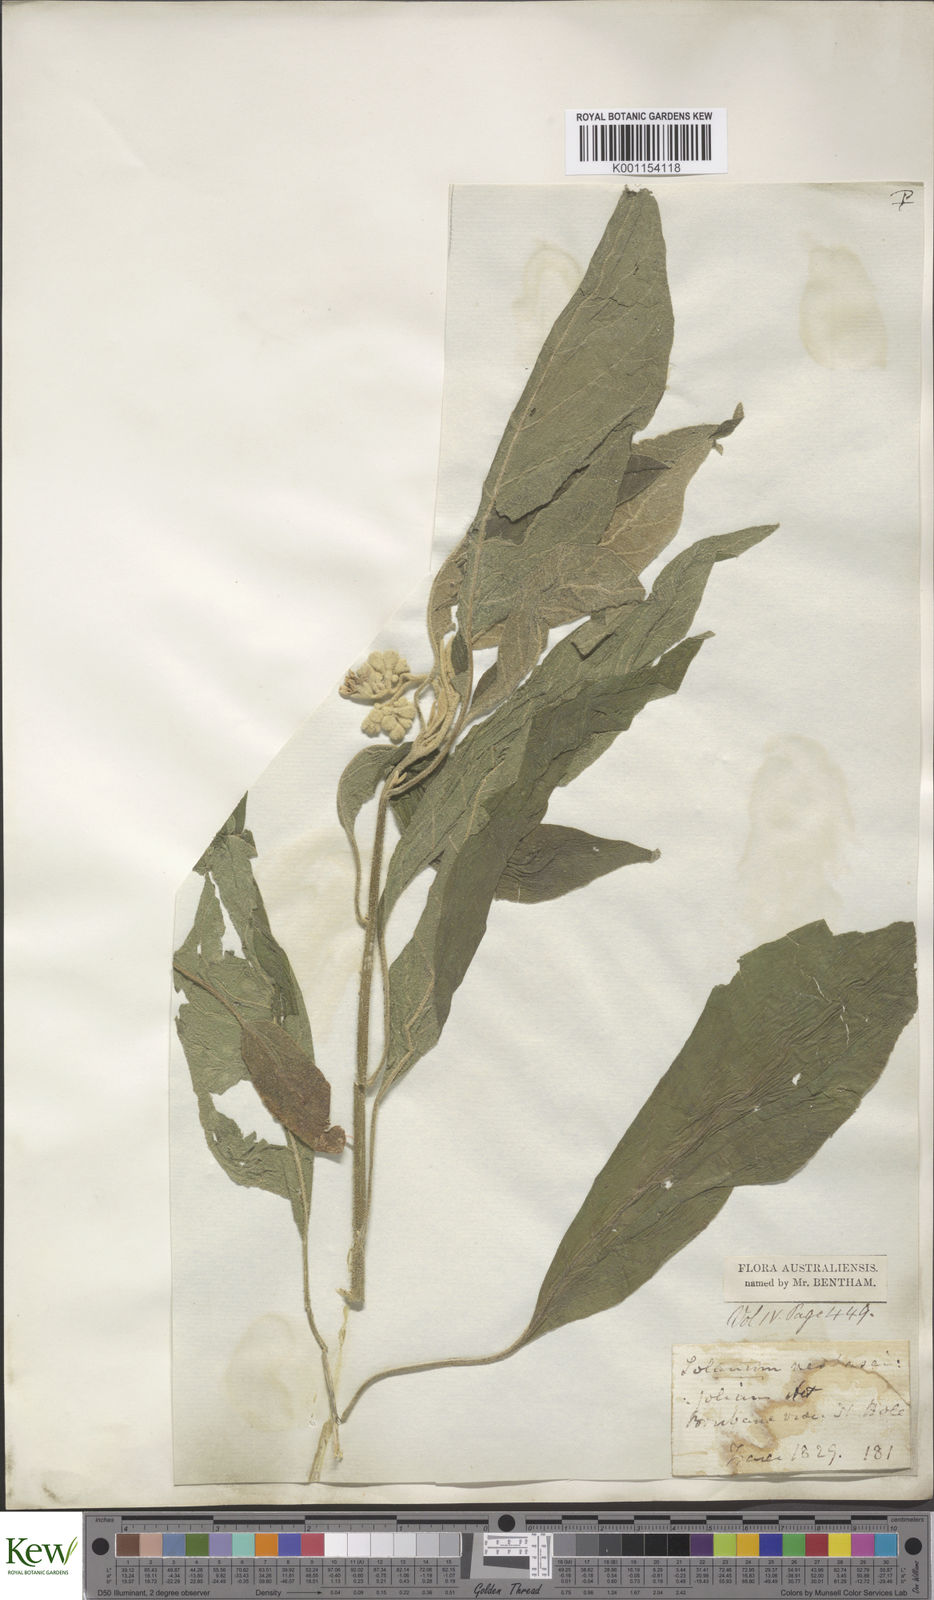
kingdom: Plantae
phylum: Tracheophyta
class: Magnoliopsida
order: Solanales
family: Solanaceae
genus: Solanum
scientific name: Solanum erianthum
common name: Tobacco-tree
